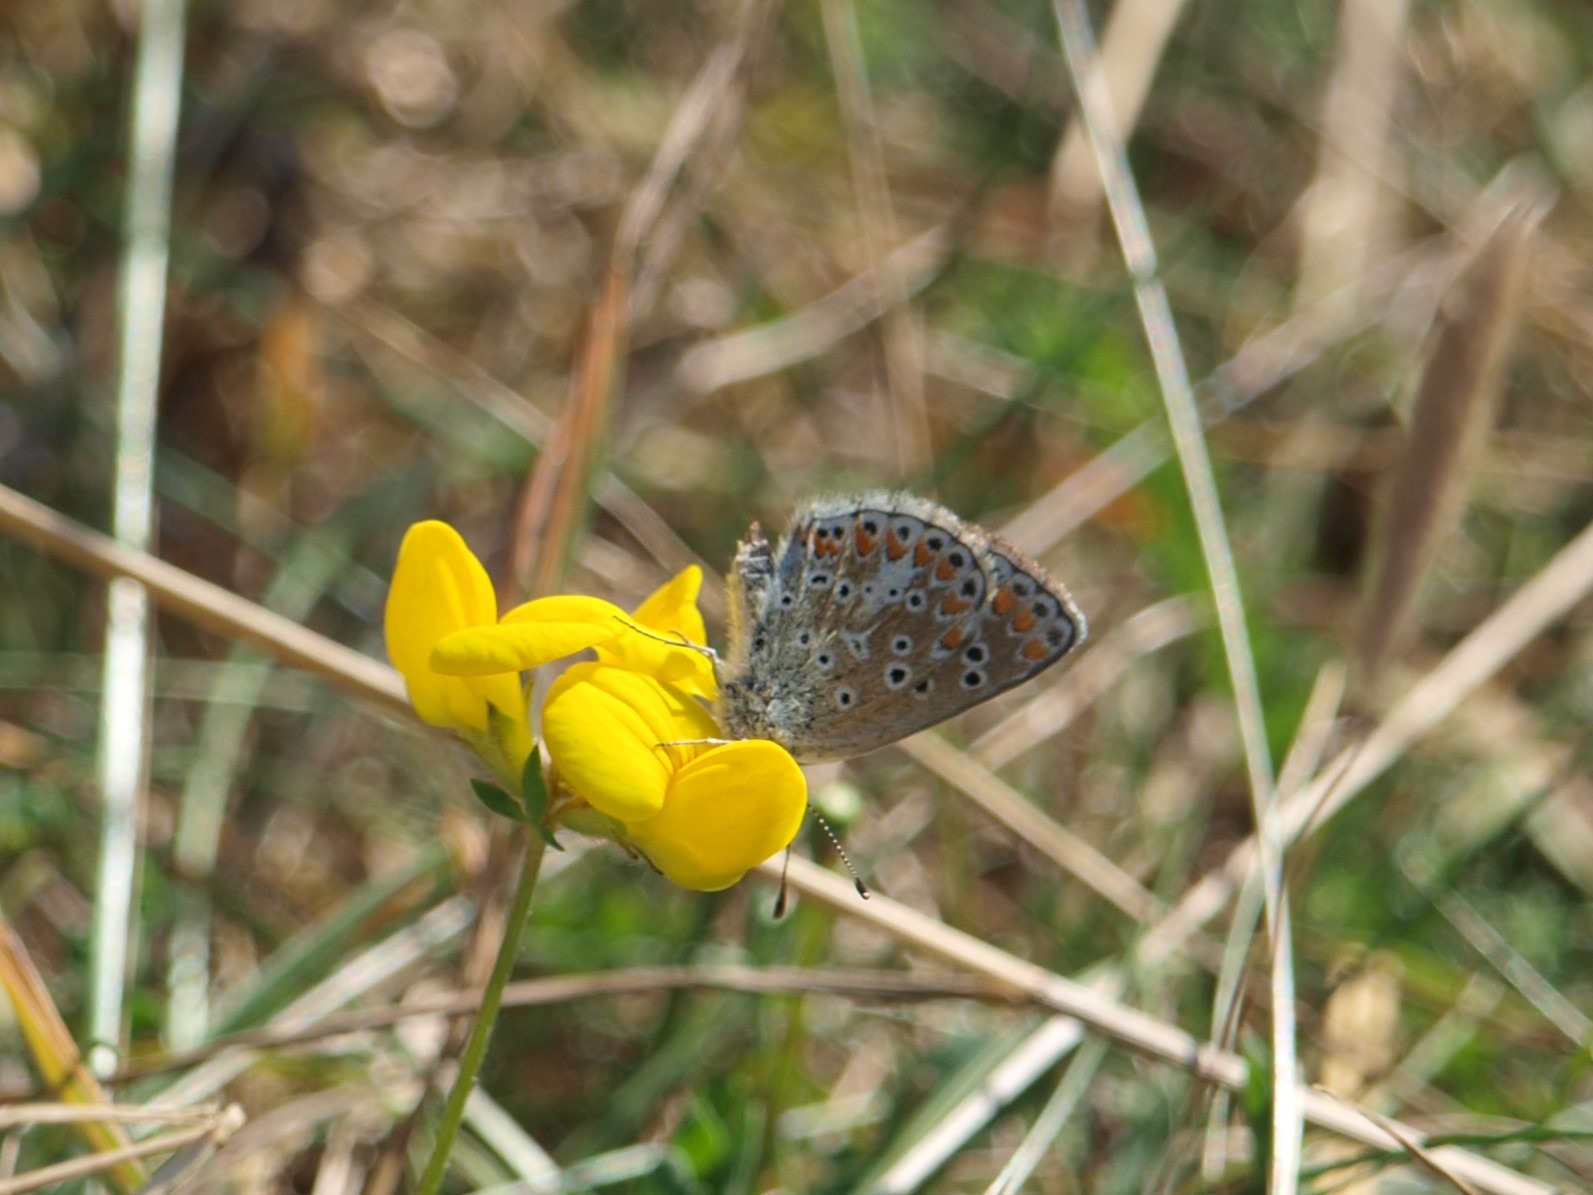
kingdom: Animalia
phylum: Arthropoda
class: Insecta
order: Lepidoptera
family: Lycaenidae
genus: Aricia
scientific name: Aricia agestis
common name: Rødplettet blåfugl
